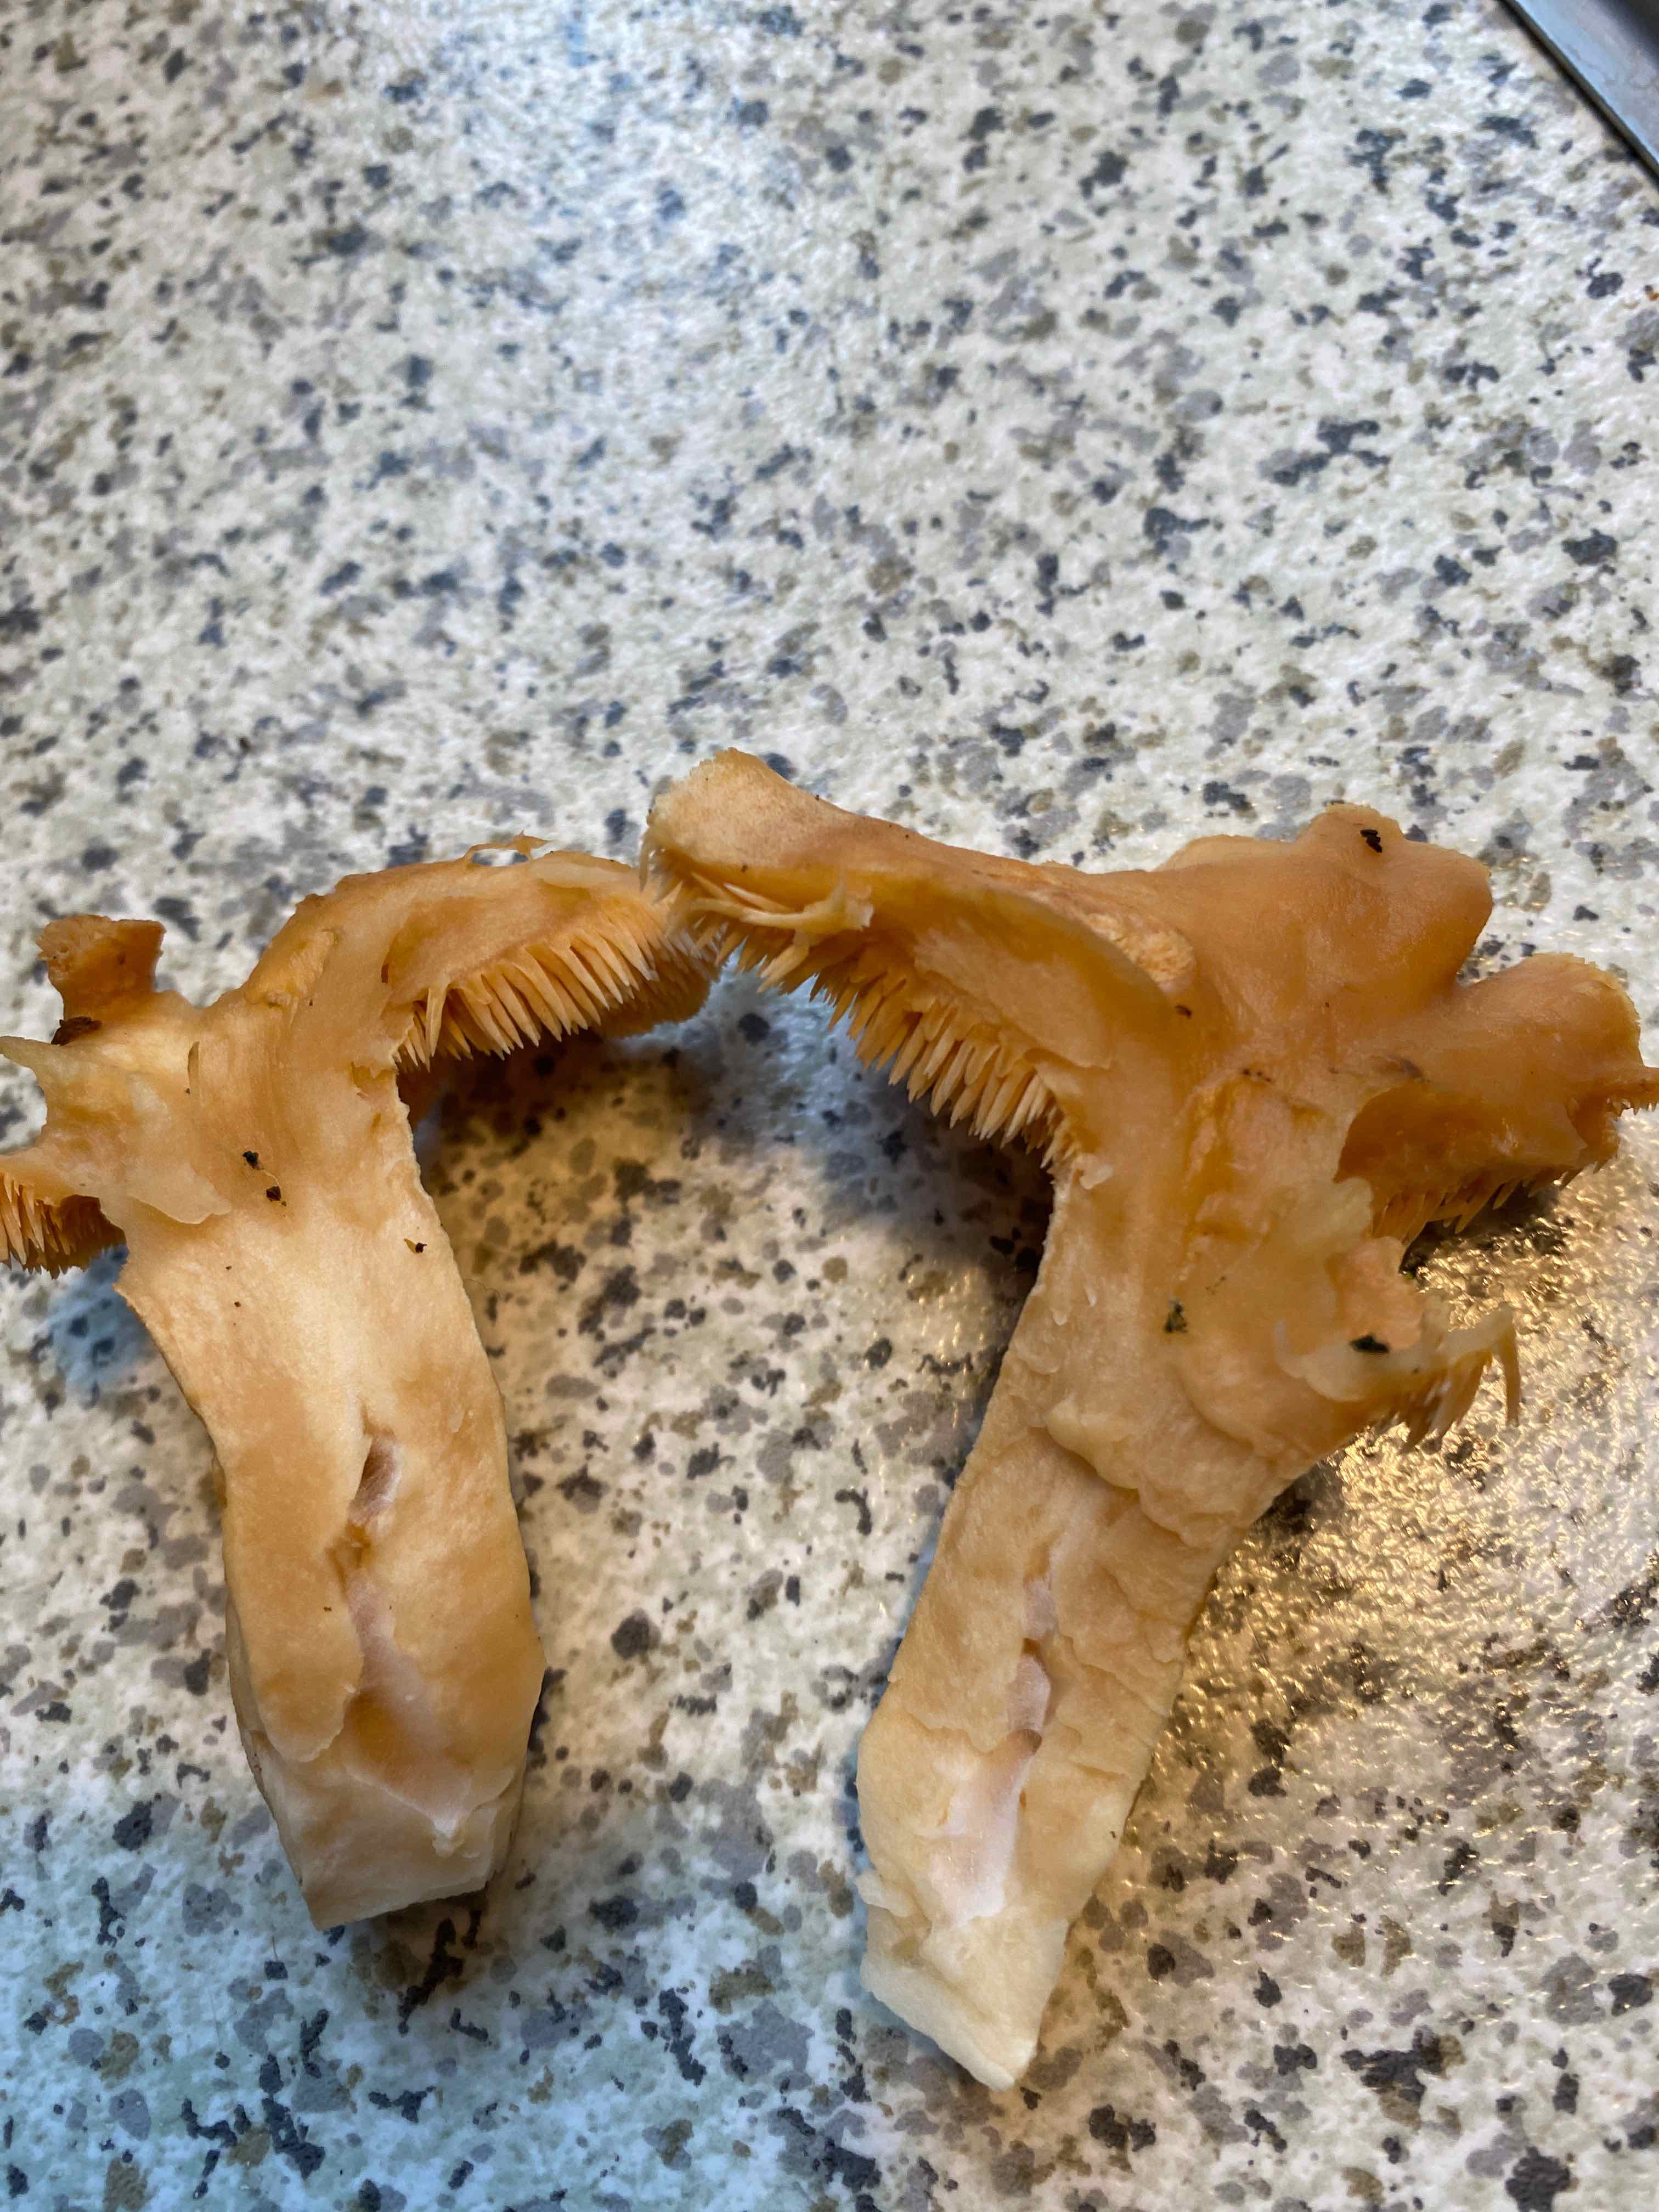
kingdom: Fungi
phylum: Basidiomycota
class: Agaricomycetes
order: Cantharellales
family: Hydnaceae
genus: Hydnum
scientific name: Hydnum
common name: pigsvamp
